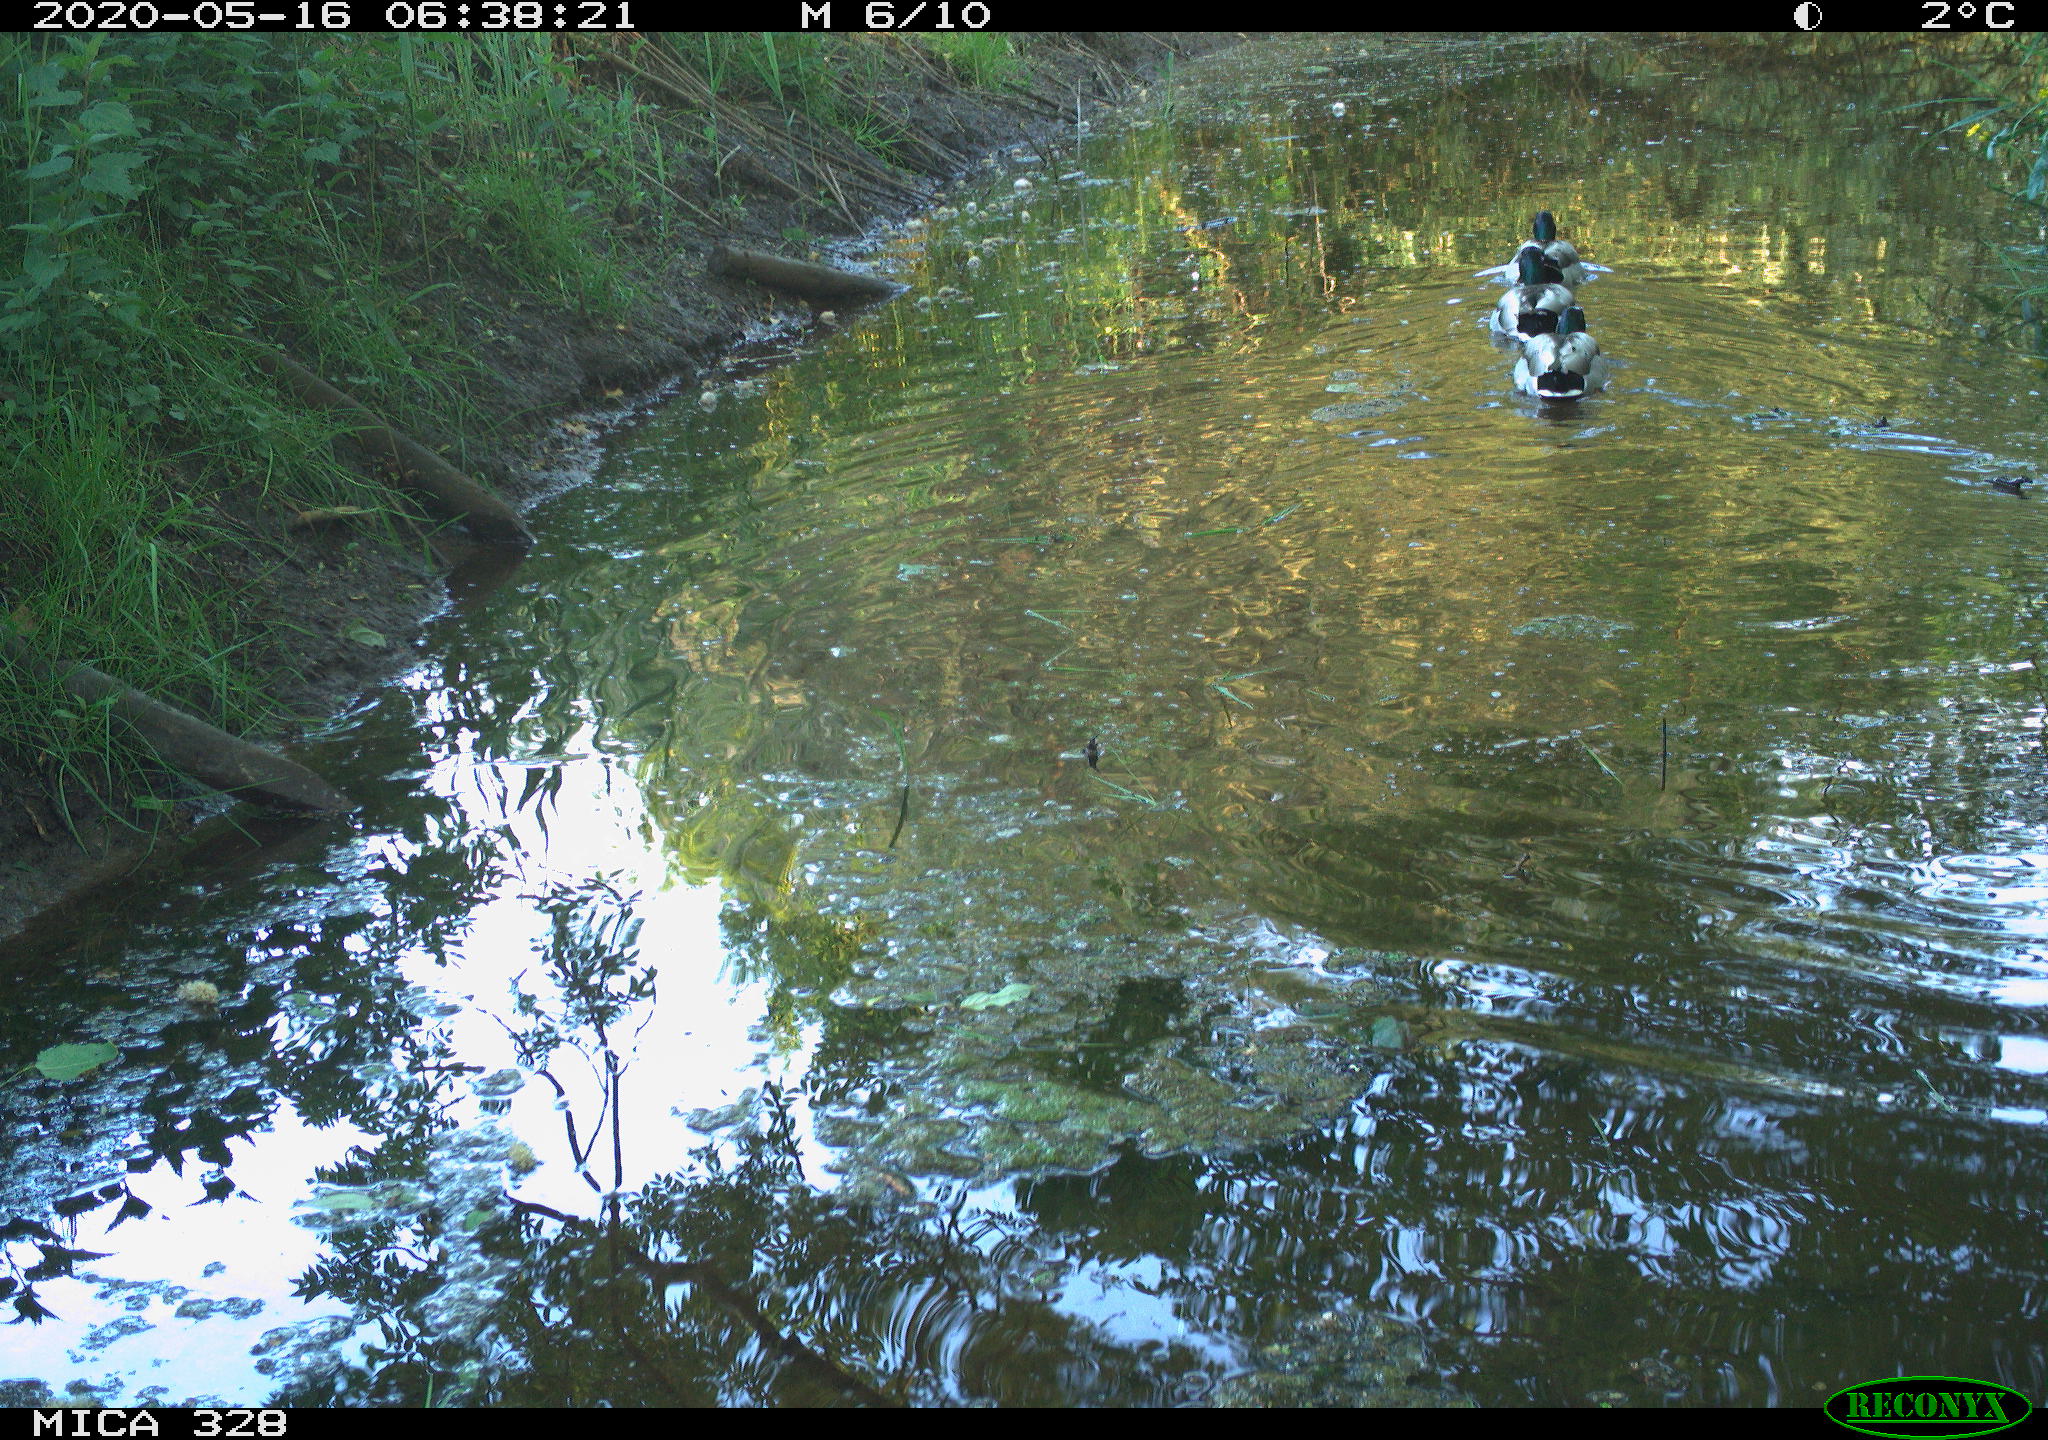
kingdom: Animalia
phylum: Chordata
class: Aves
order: Anseriformes
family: Anatidae
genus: Anas
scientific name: Anas platyrhynchos
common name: Mallard
